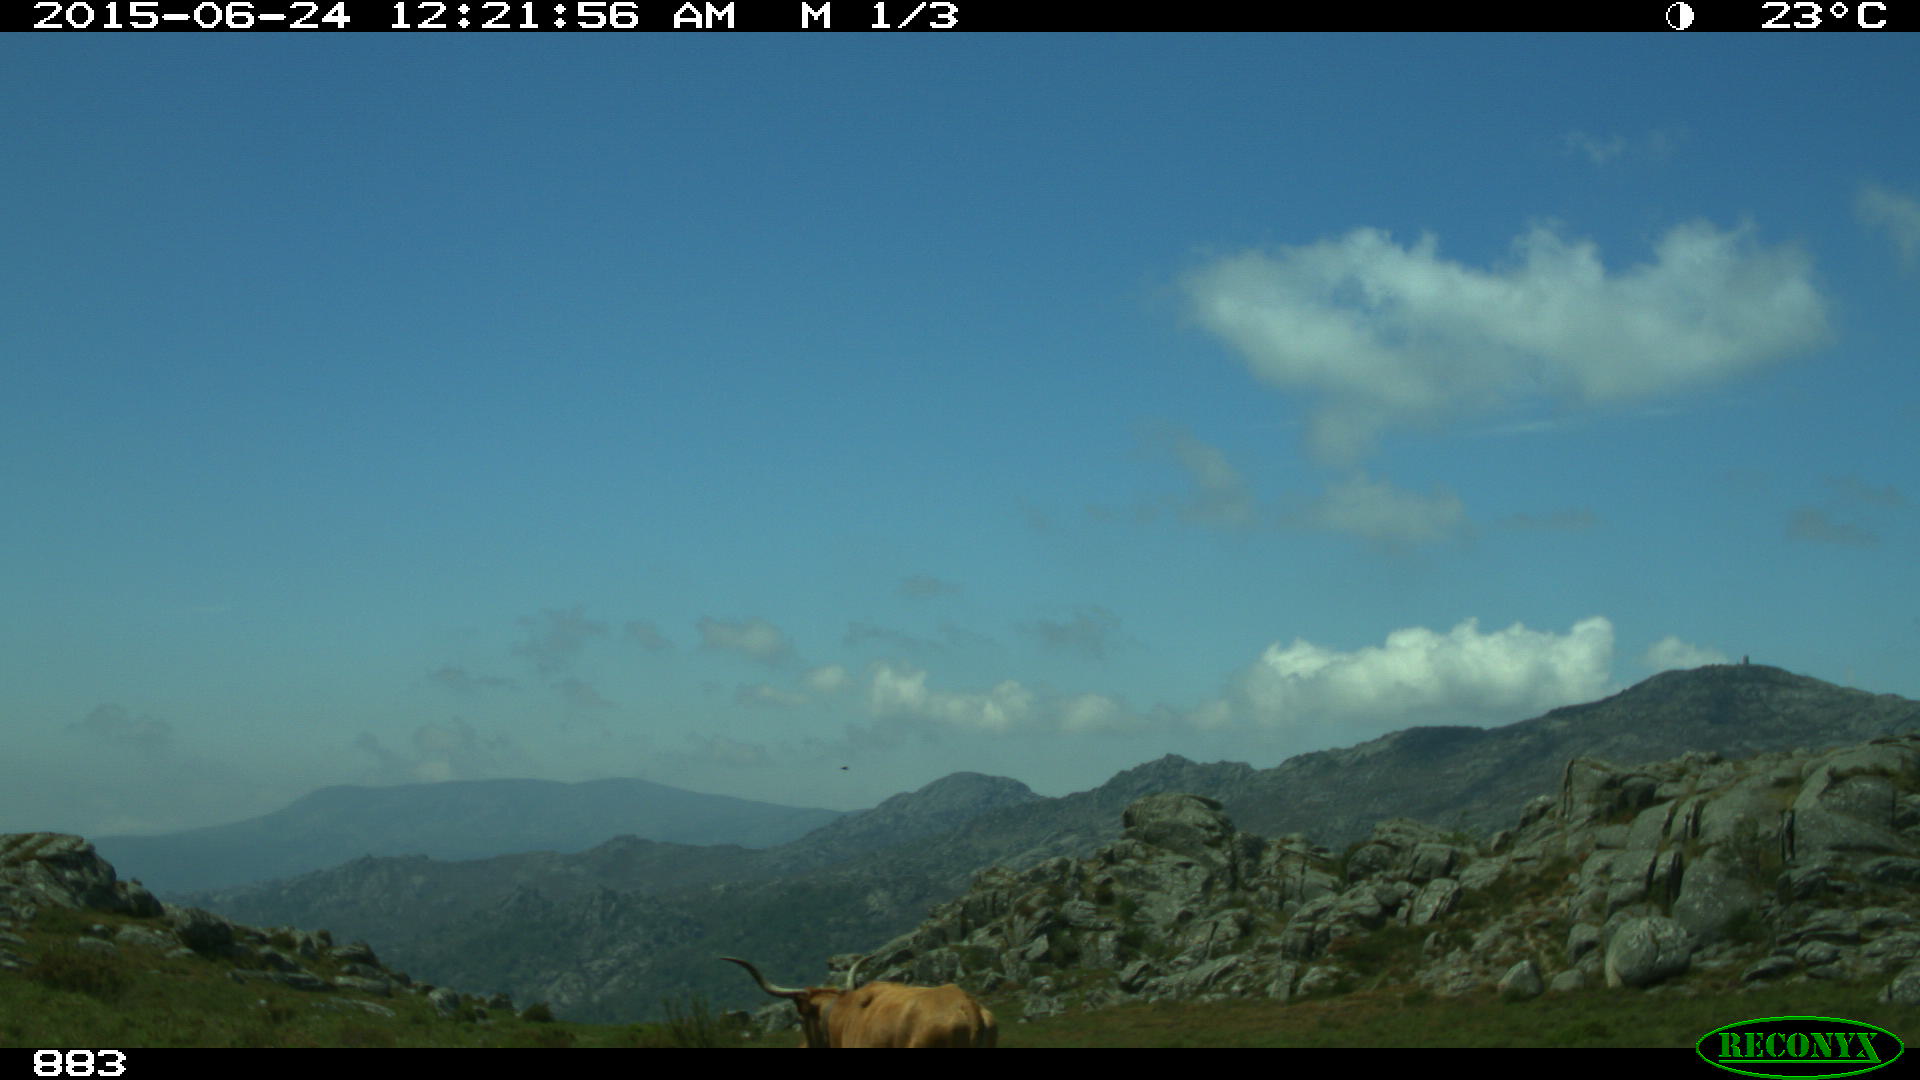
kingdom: Animalia
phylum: Chordata
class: Mammalia
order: Artiodactyla
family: Bovidae
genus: Bos
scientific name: Bos taurus
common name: Domesticated cattle
